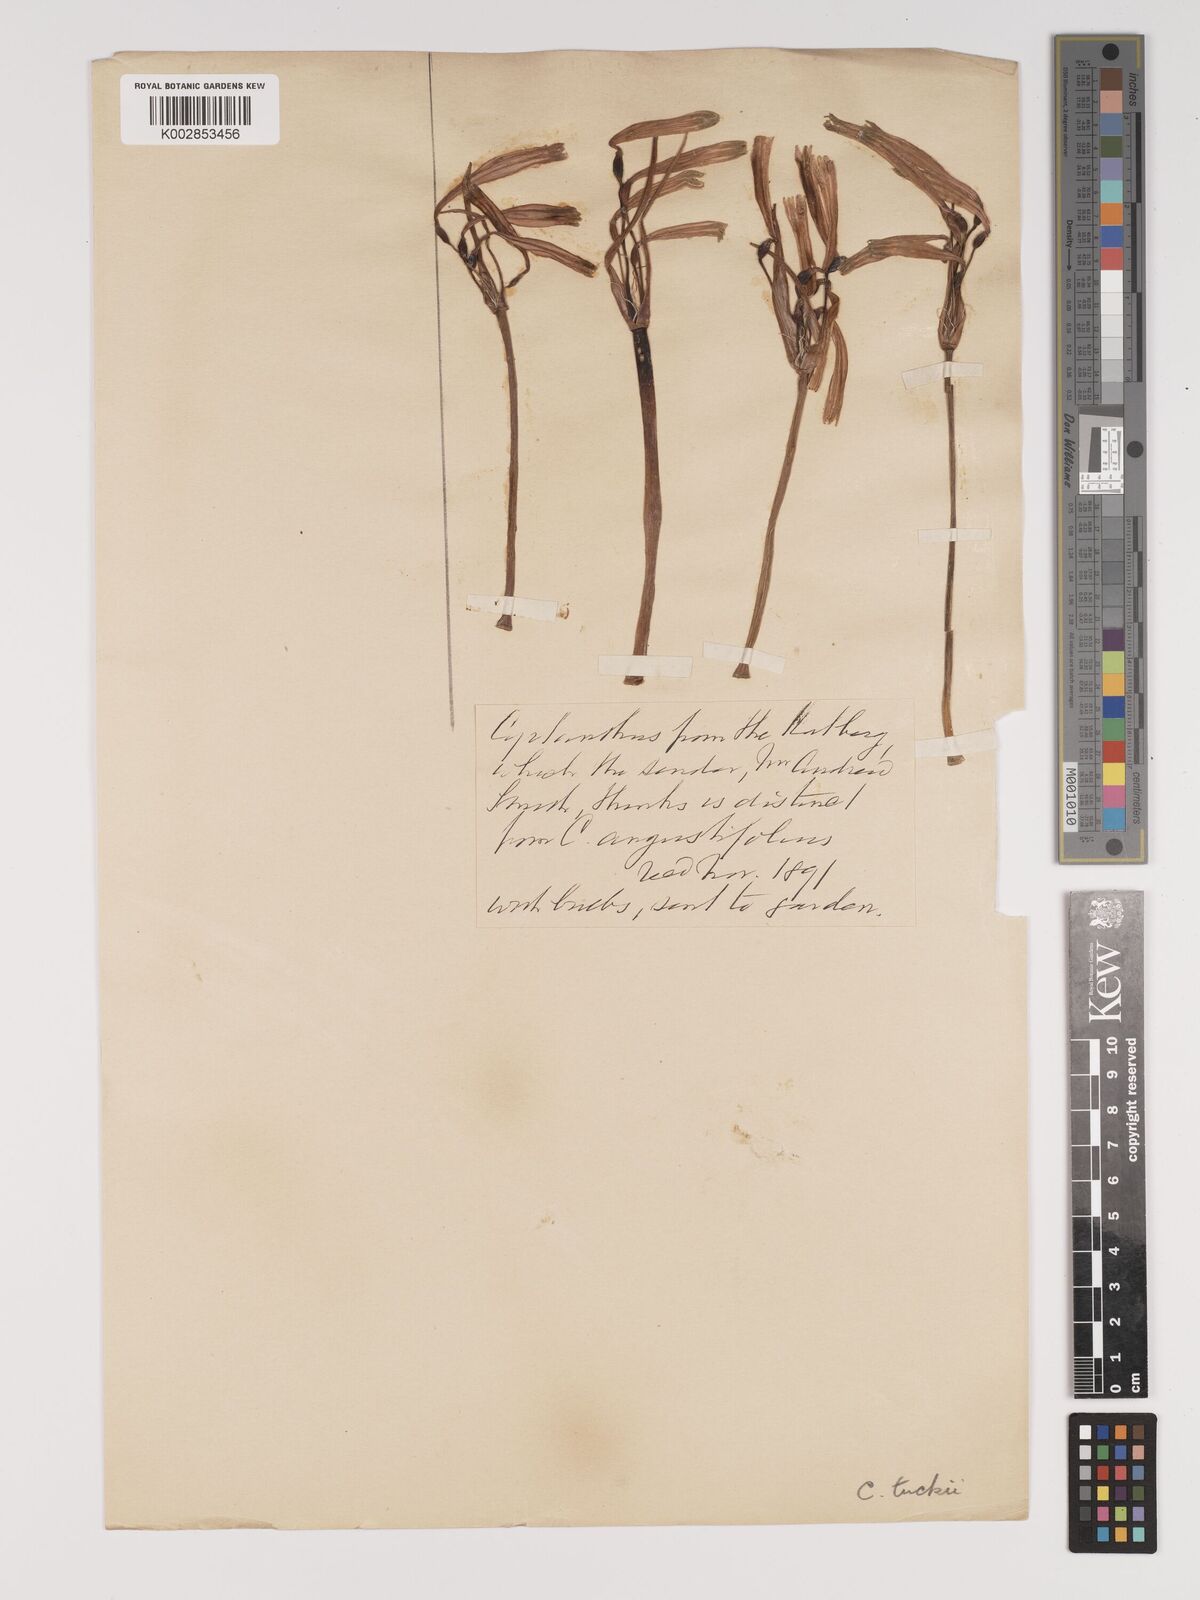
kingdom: Plantae
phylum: Tracheophyta
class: Liliopsida
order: Asparagales
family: Amaryllidaceae
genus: Cyrtanthus
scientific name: Cyrtanthus tuckii
